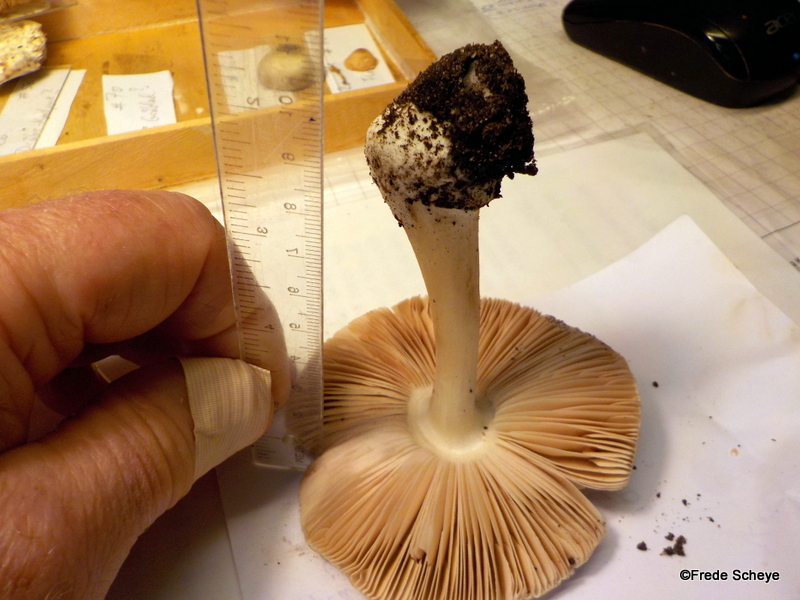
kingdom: Fungi
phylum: Basidiomycota
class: Agaricomycetes
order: Agaricales
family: Pluteaceae
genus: Volvopluteus
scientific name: Volvopluteus gloiocephalus
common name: høj posesvamp
